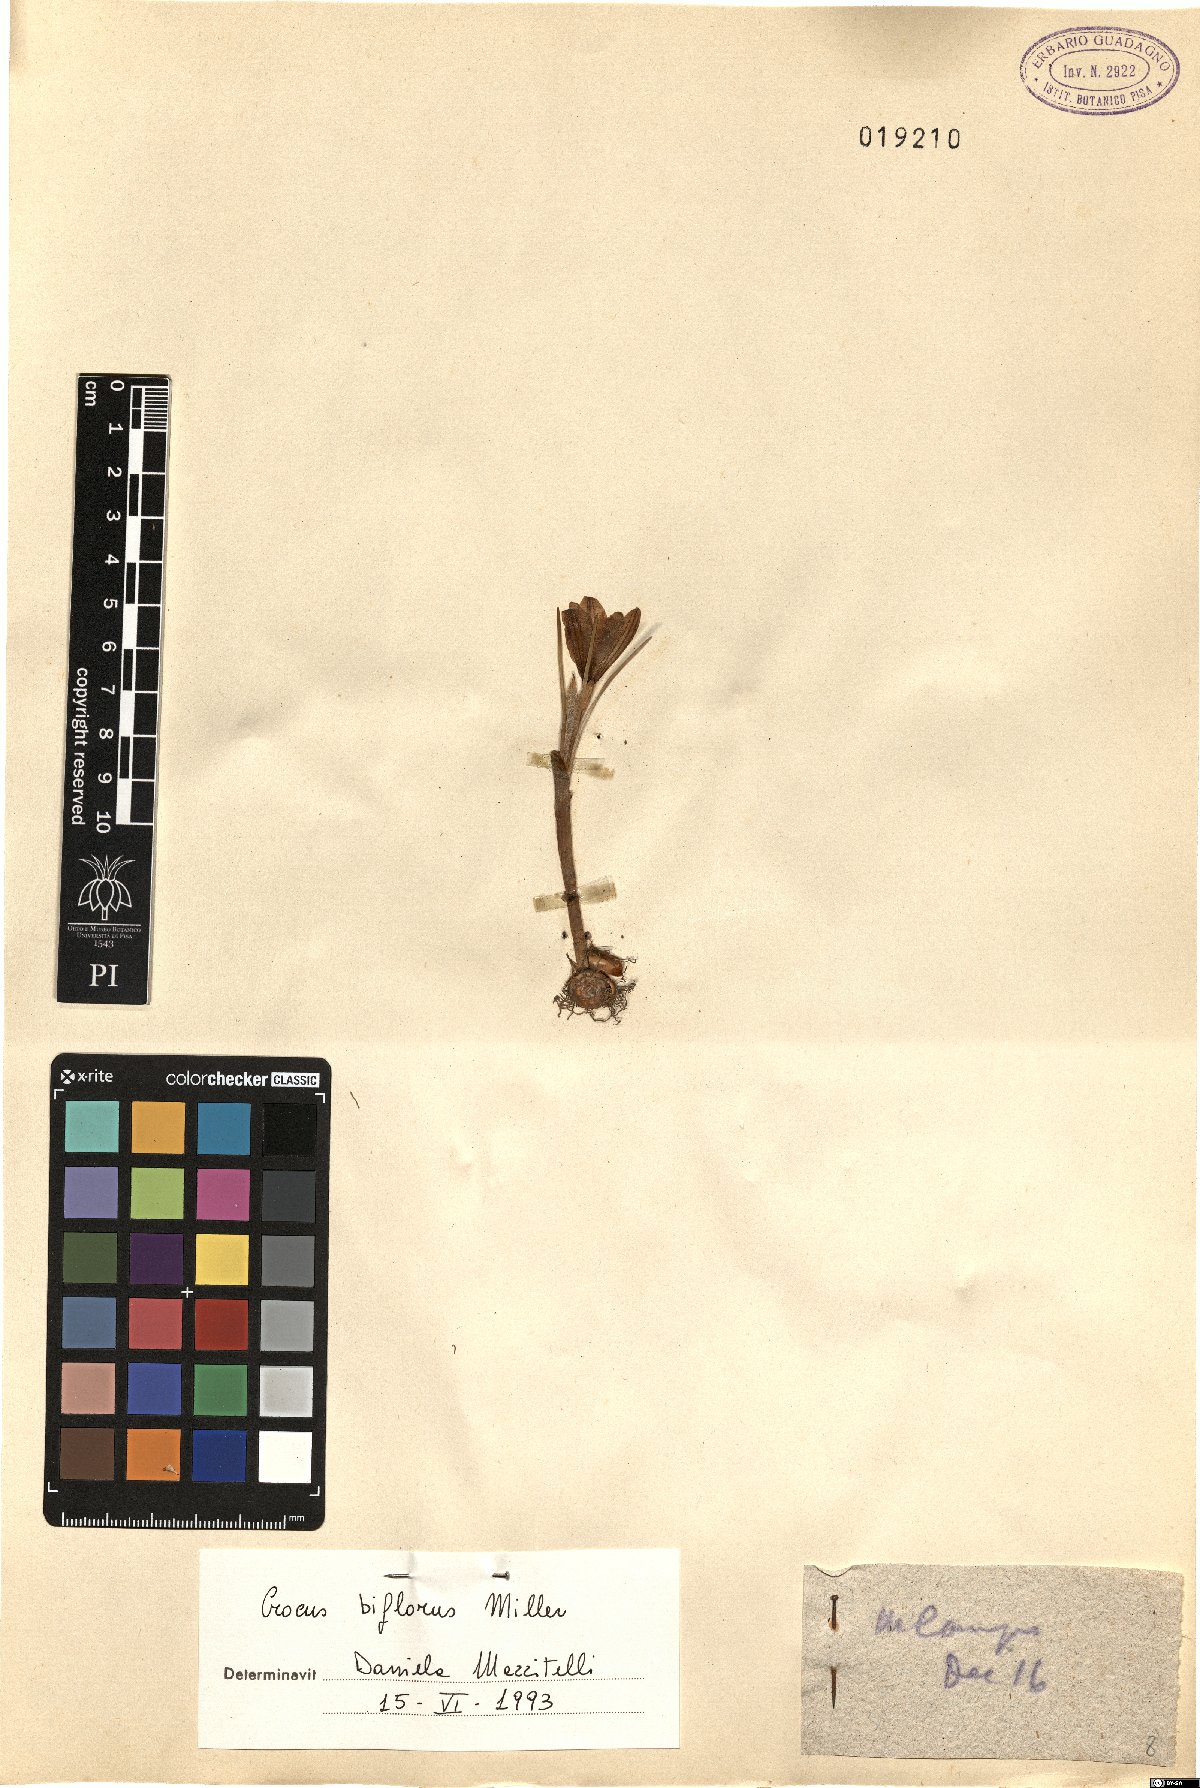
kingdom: Plantae
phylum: Tracheophyta
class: Liliopsida
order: Asparagales
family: Iridaceae
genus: Crocus
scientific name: Crocus biflorus
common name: Silvery crocus
